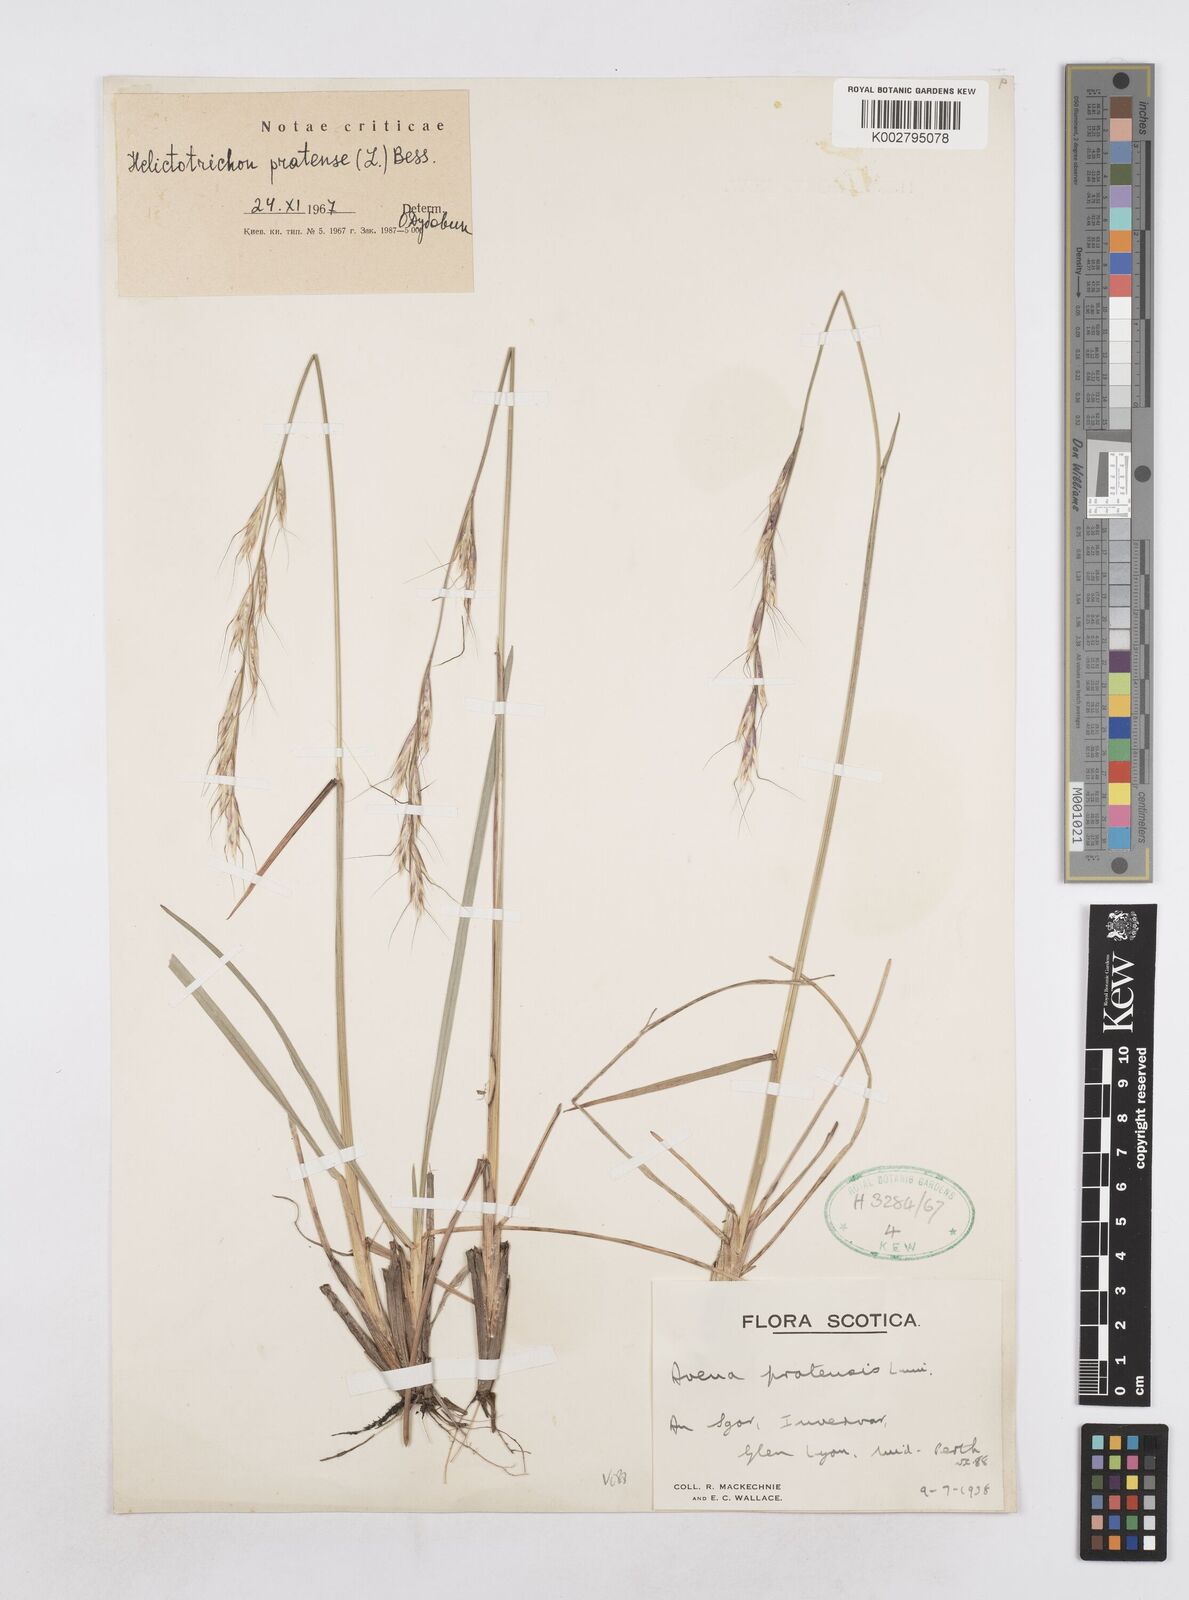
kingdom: Plantae
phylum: Tracheophyta
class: Liliopsida
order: Poales
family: Poaceae
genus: Helictotrichon
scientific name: Helictotrichon
